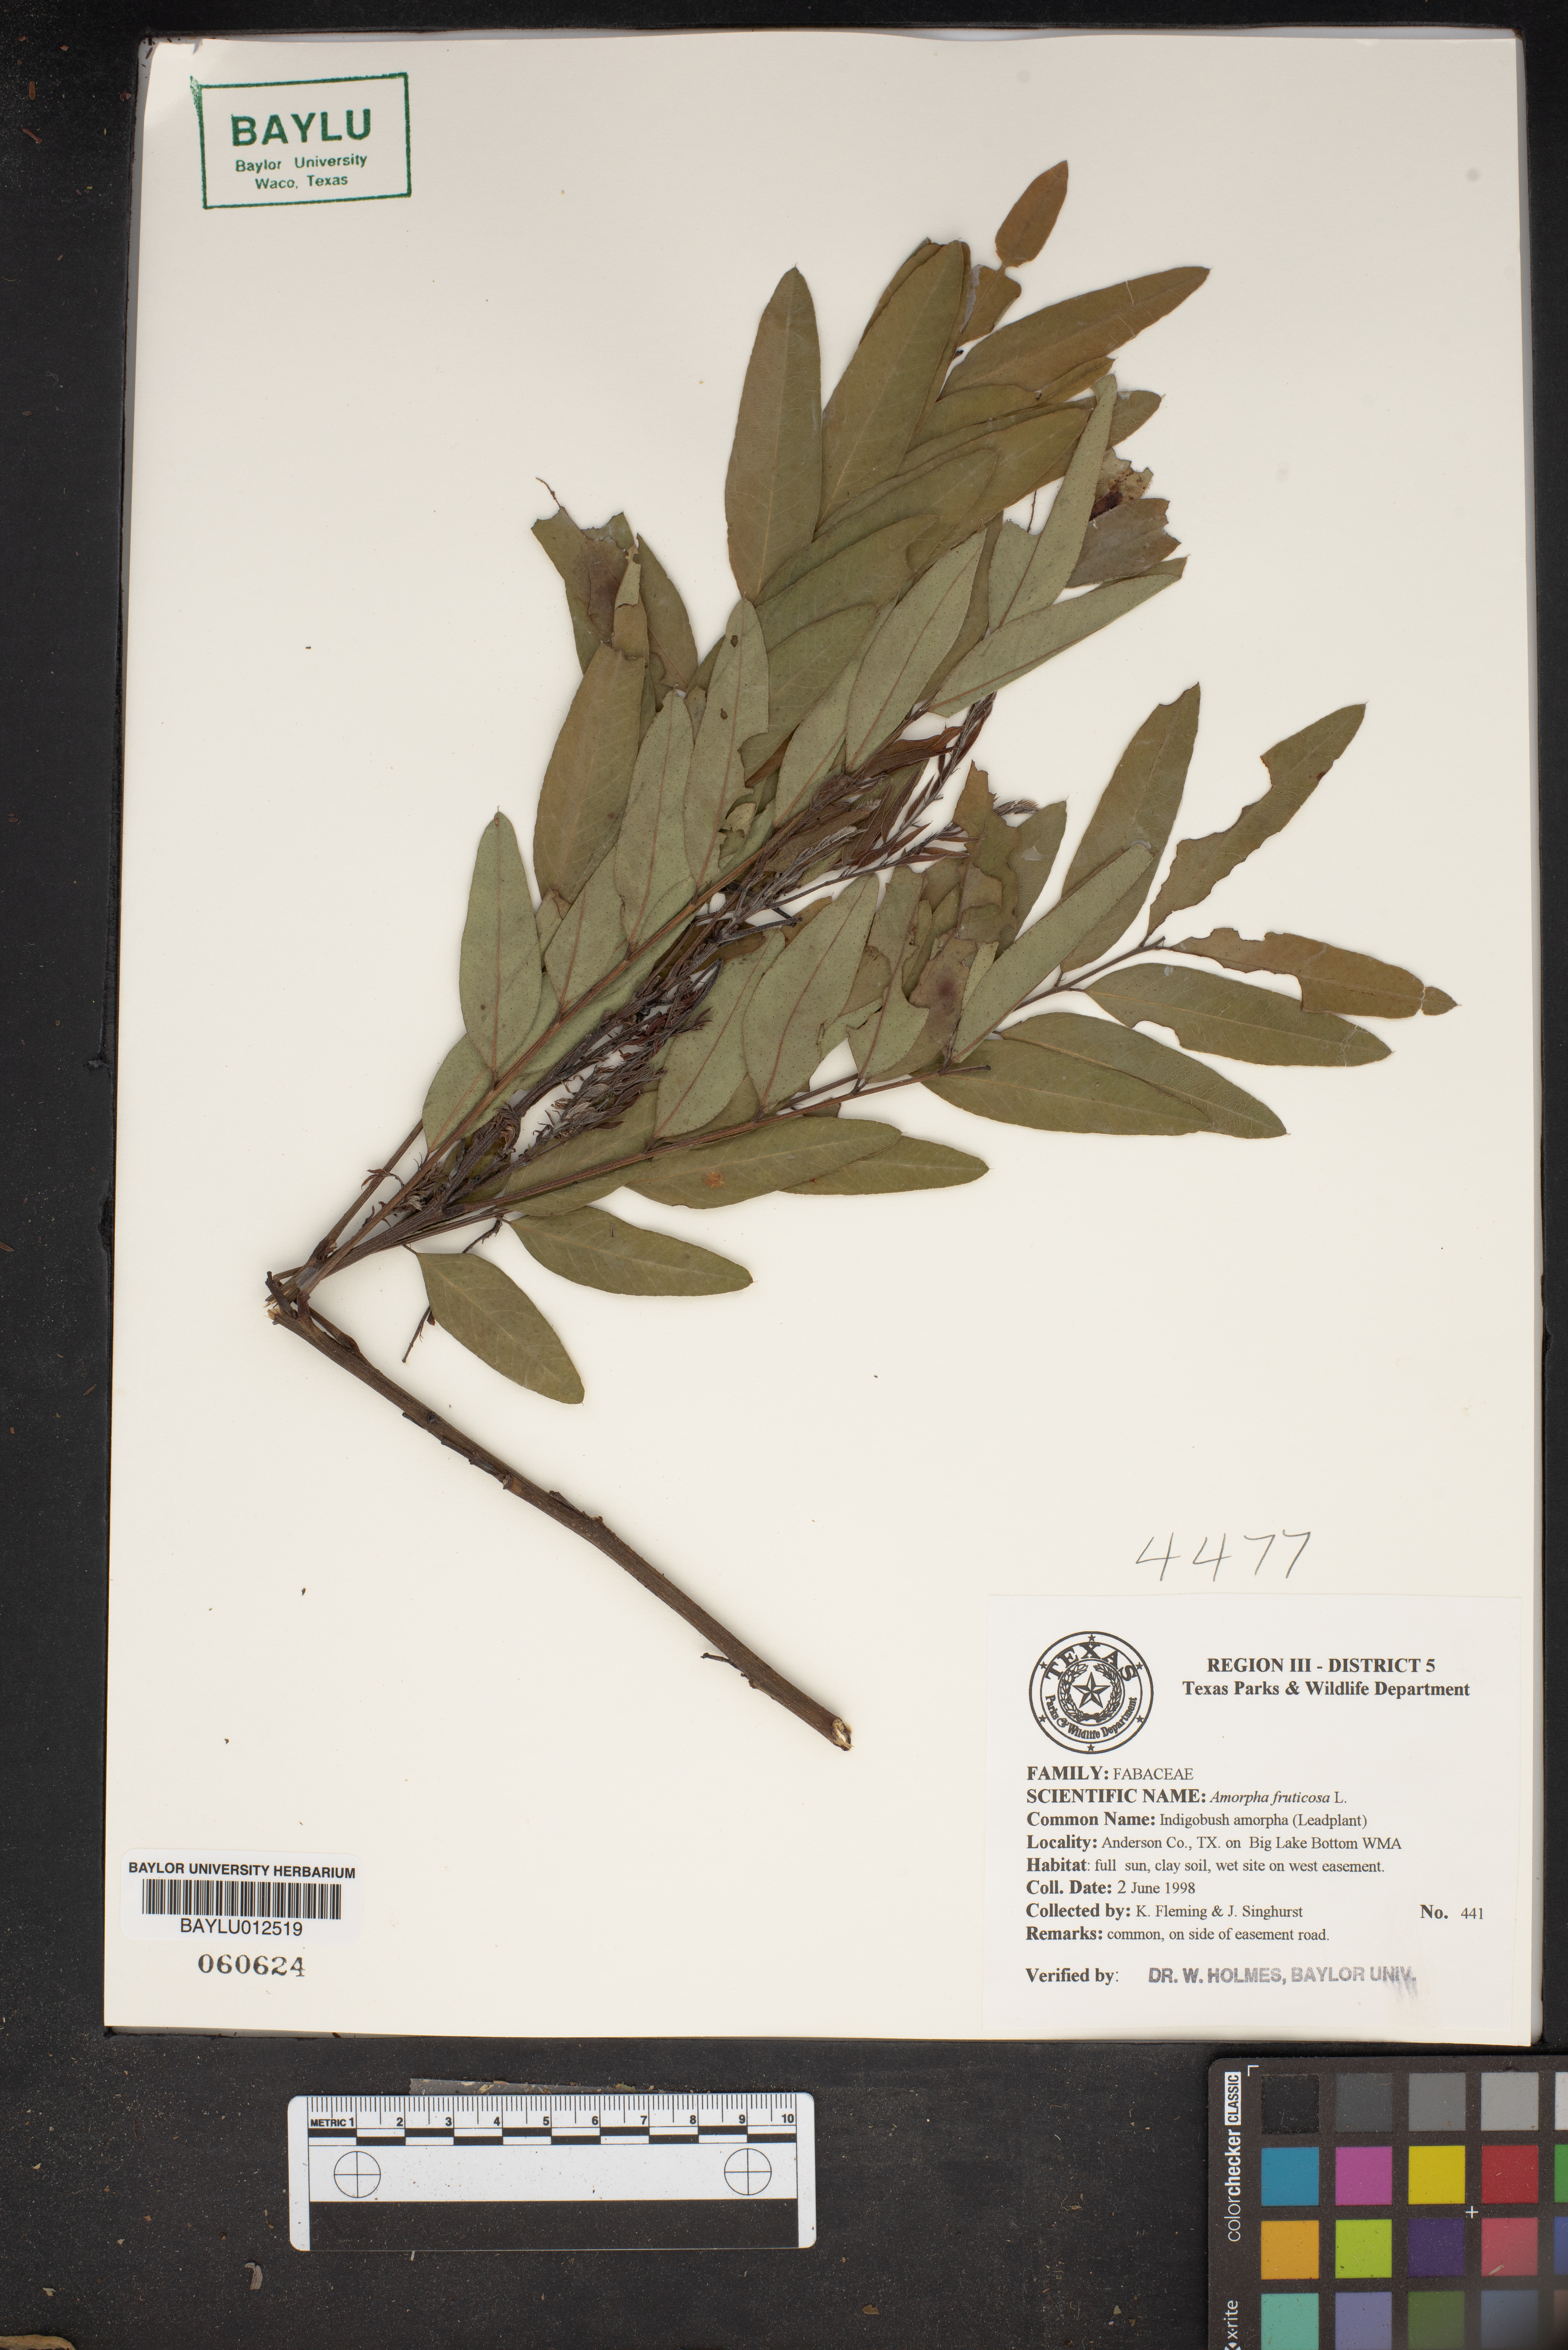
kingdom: Plantae
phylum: Tracheophyta
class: Magnoliopsida
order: Fabales
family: Fabaceae
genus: Amorpha
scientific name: Amorpha fruticosa
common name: False indigo
